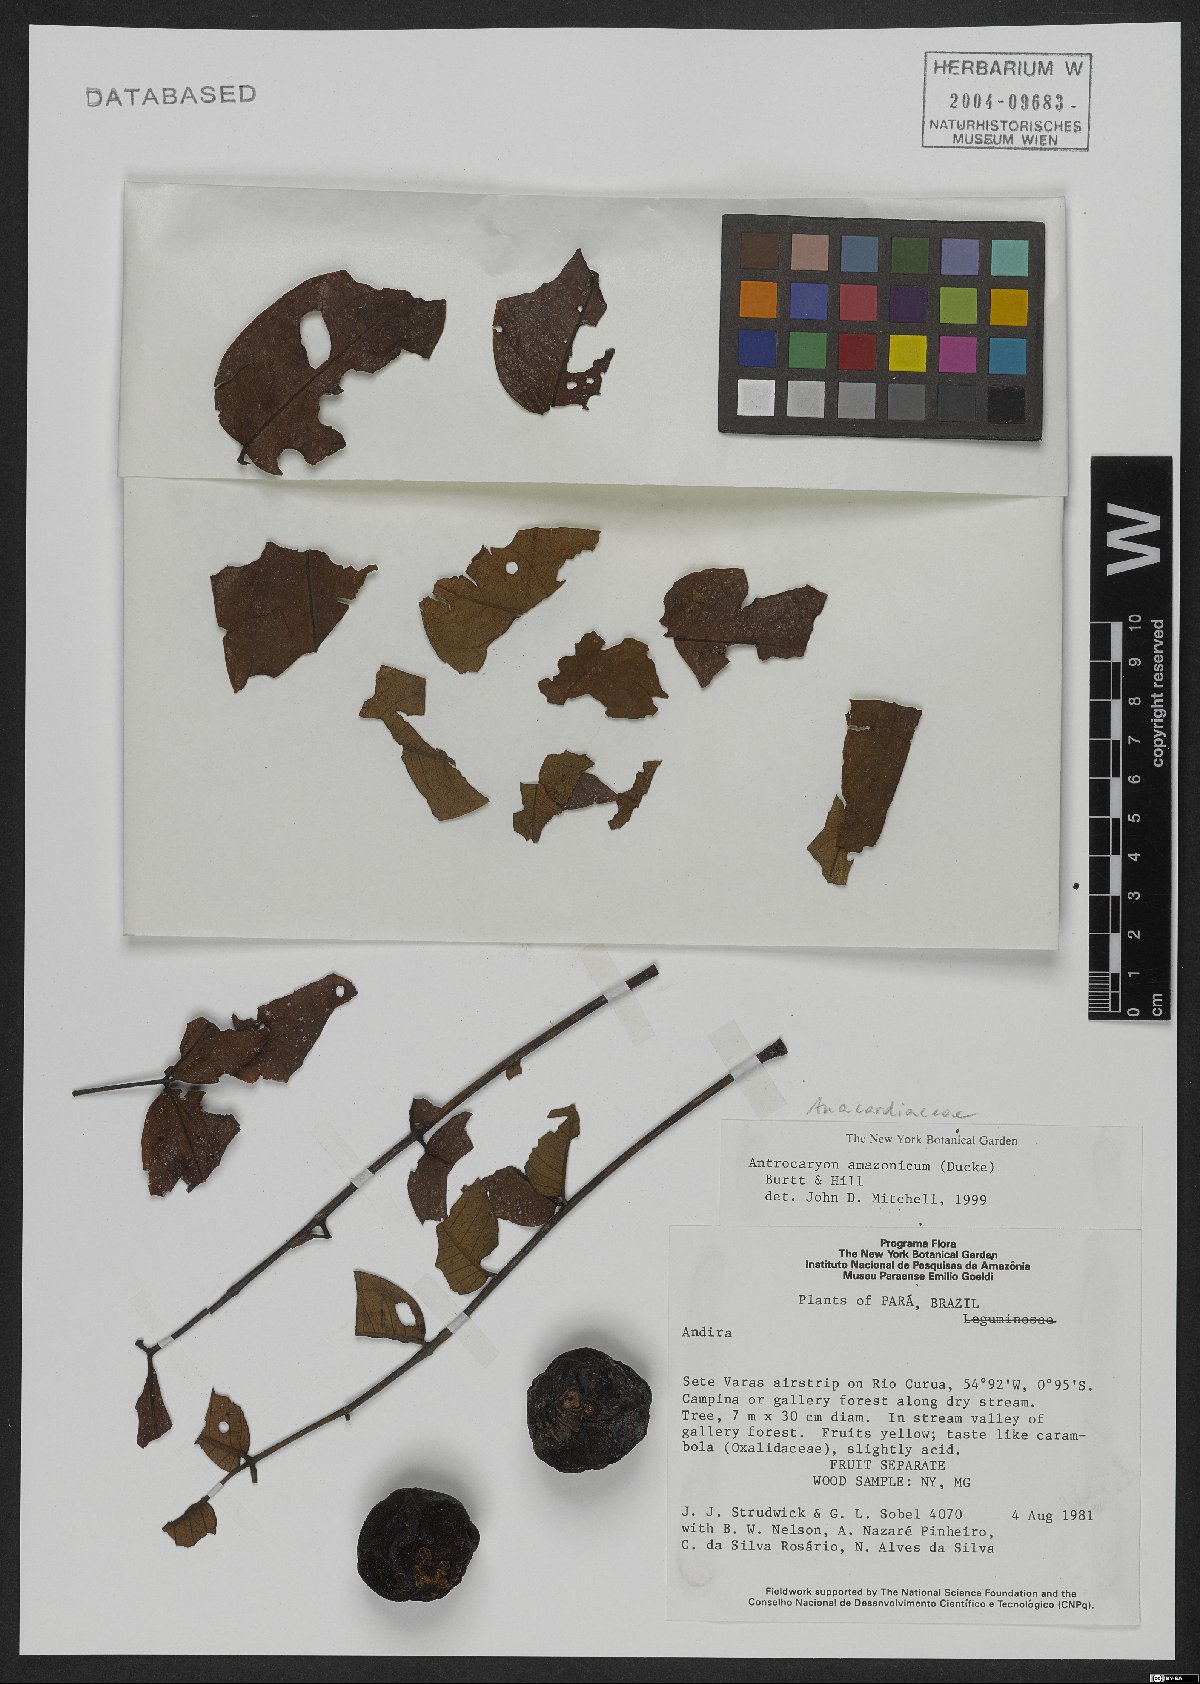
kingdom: Plantae
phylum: Tracheophyta
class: Magnoliopsida
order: Sapindales
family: Anacardiaceae
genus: Antrocaryon
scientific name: Antrocaryon amazonicum
